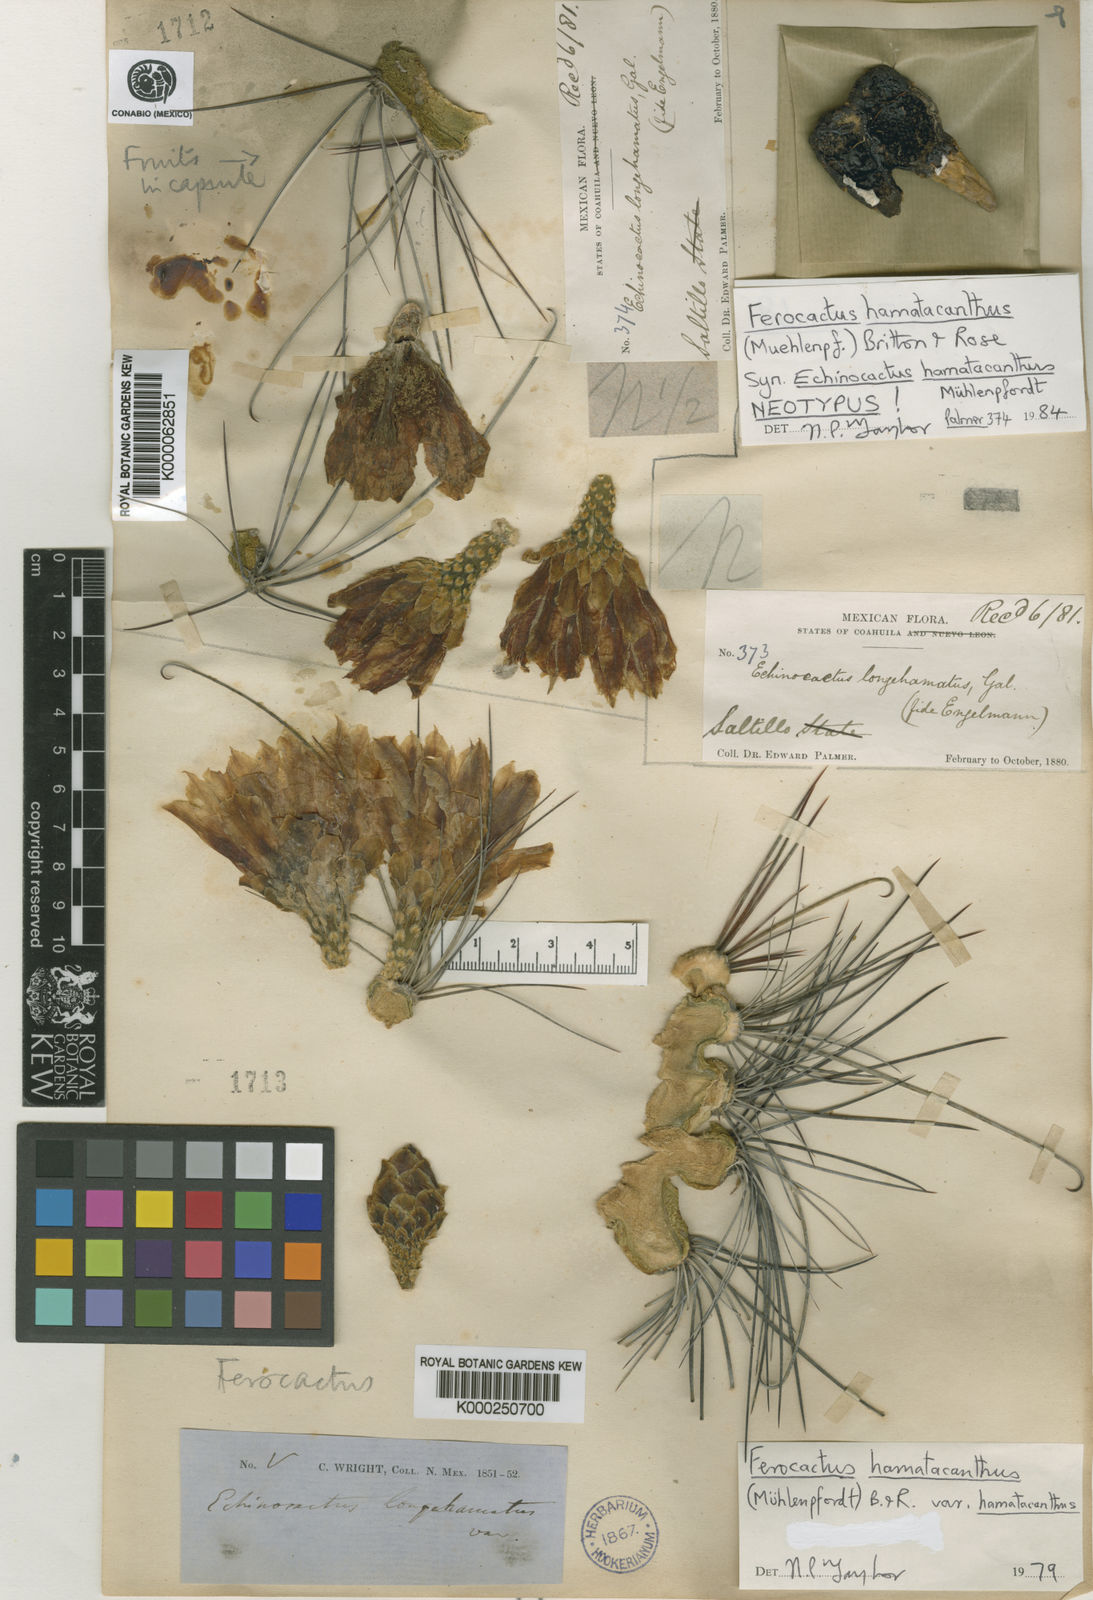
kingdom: Plantae
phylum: Tracheophyta
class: Magnoliopsida
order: Caryophyllales
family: Cactaceae
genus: Bisnaga
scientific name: Bisnaga hamatacantha
